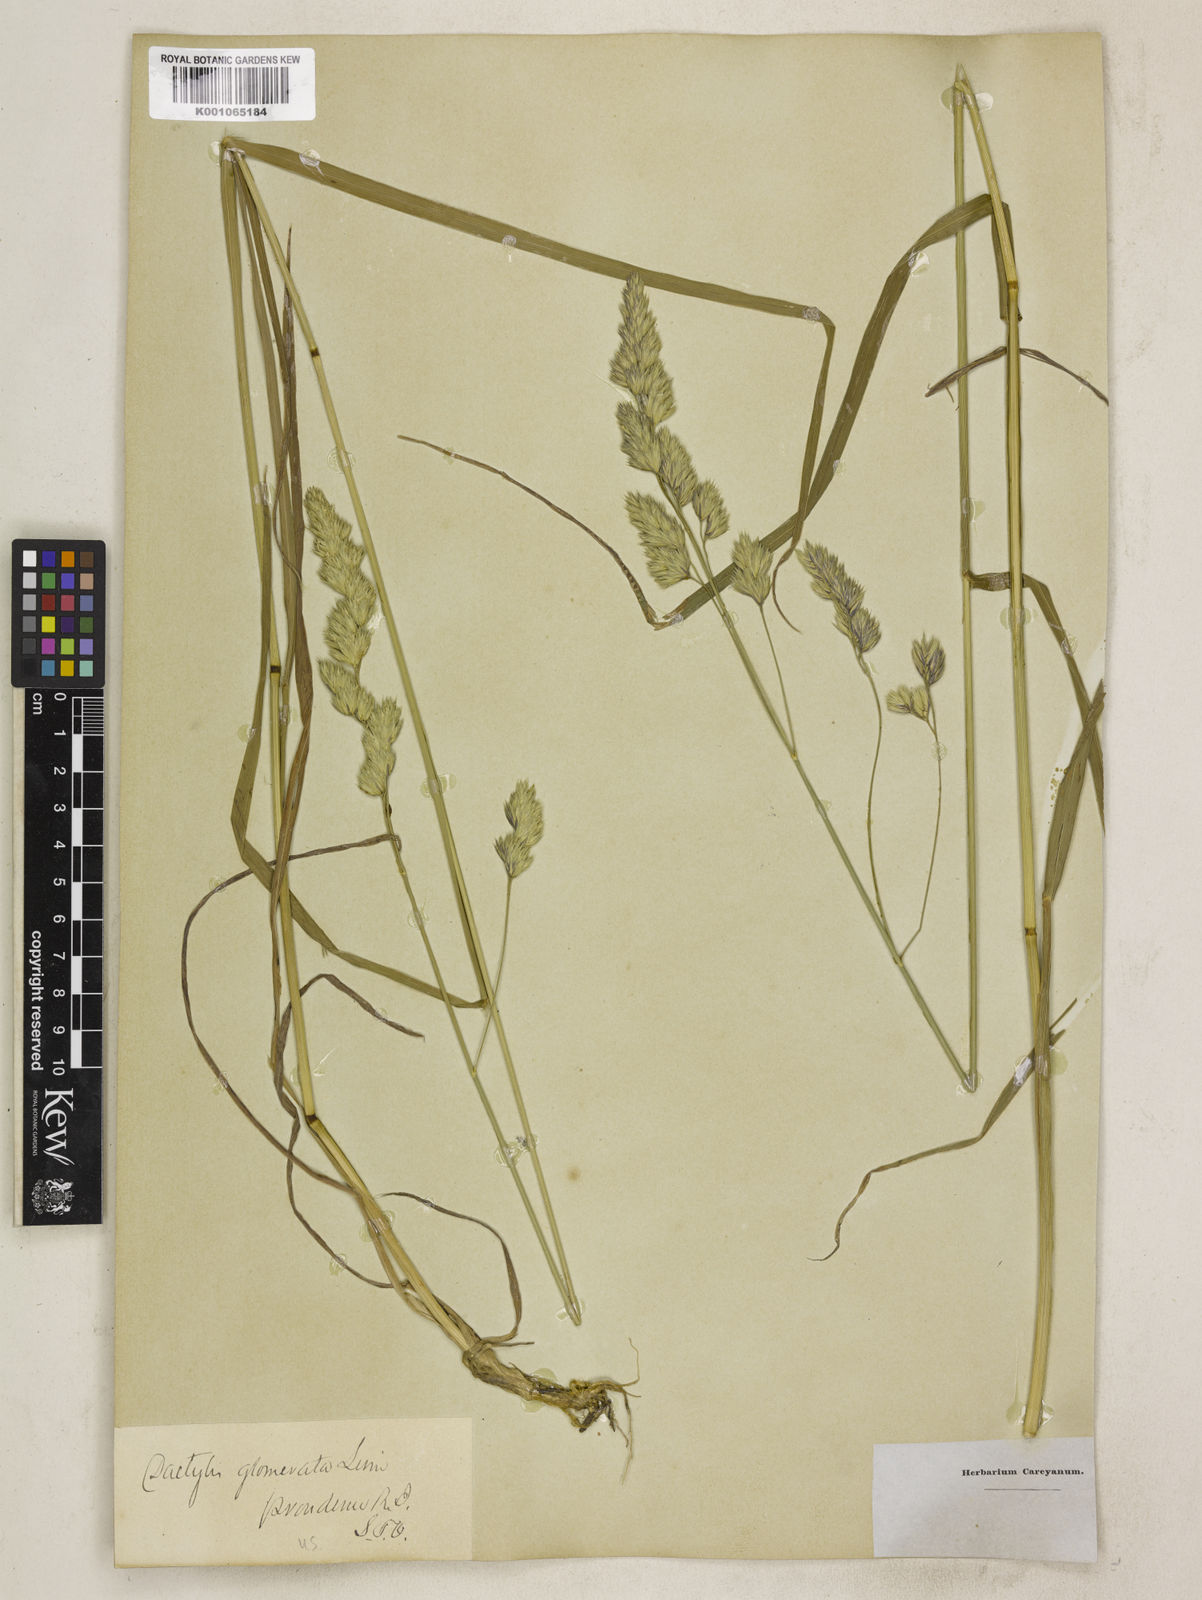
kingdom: Plantae
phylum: Tracheophyta
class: Liliopsida
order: Poales
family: Poaceae
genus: Dactylis
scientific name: Dactylis glomerata
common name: Orchardgrass
